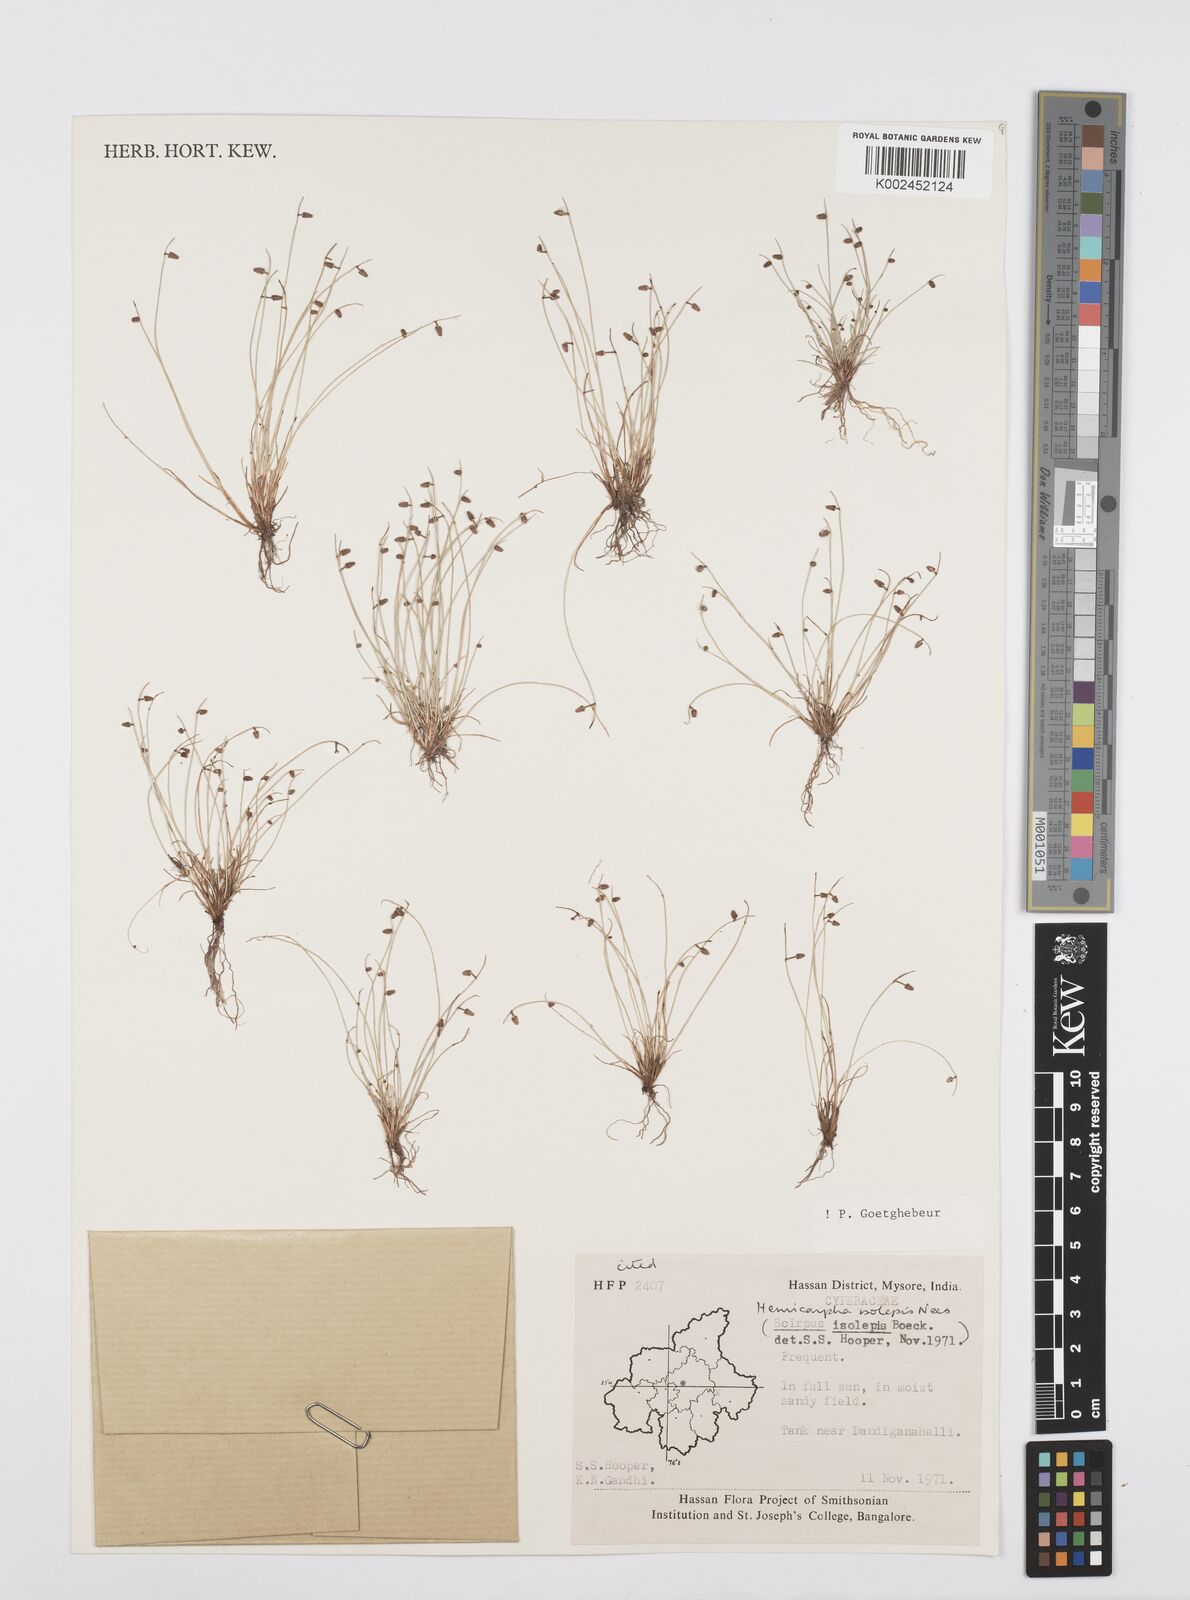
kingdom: Plantae
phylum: Tracheophyta
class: Liliopsida
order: Poales
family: Cyperaceae
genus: Cyperus
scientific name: Cyperus hemisphaericus
